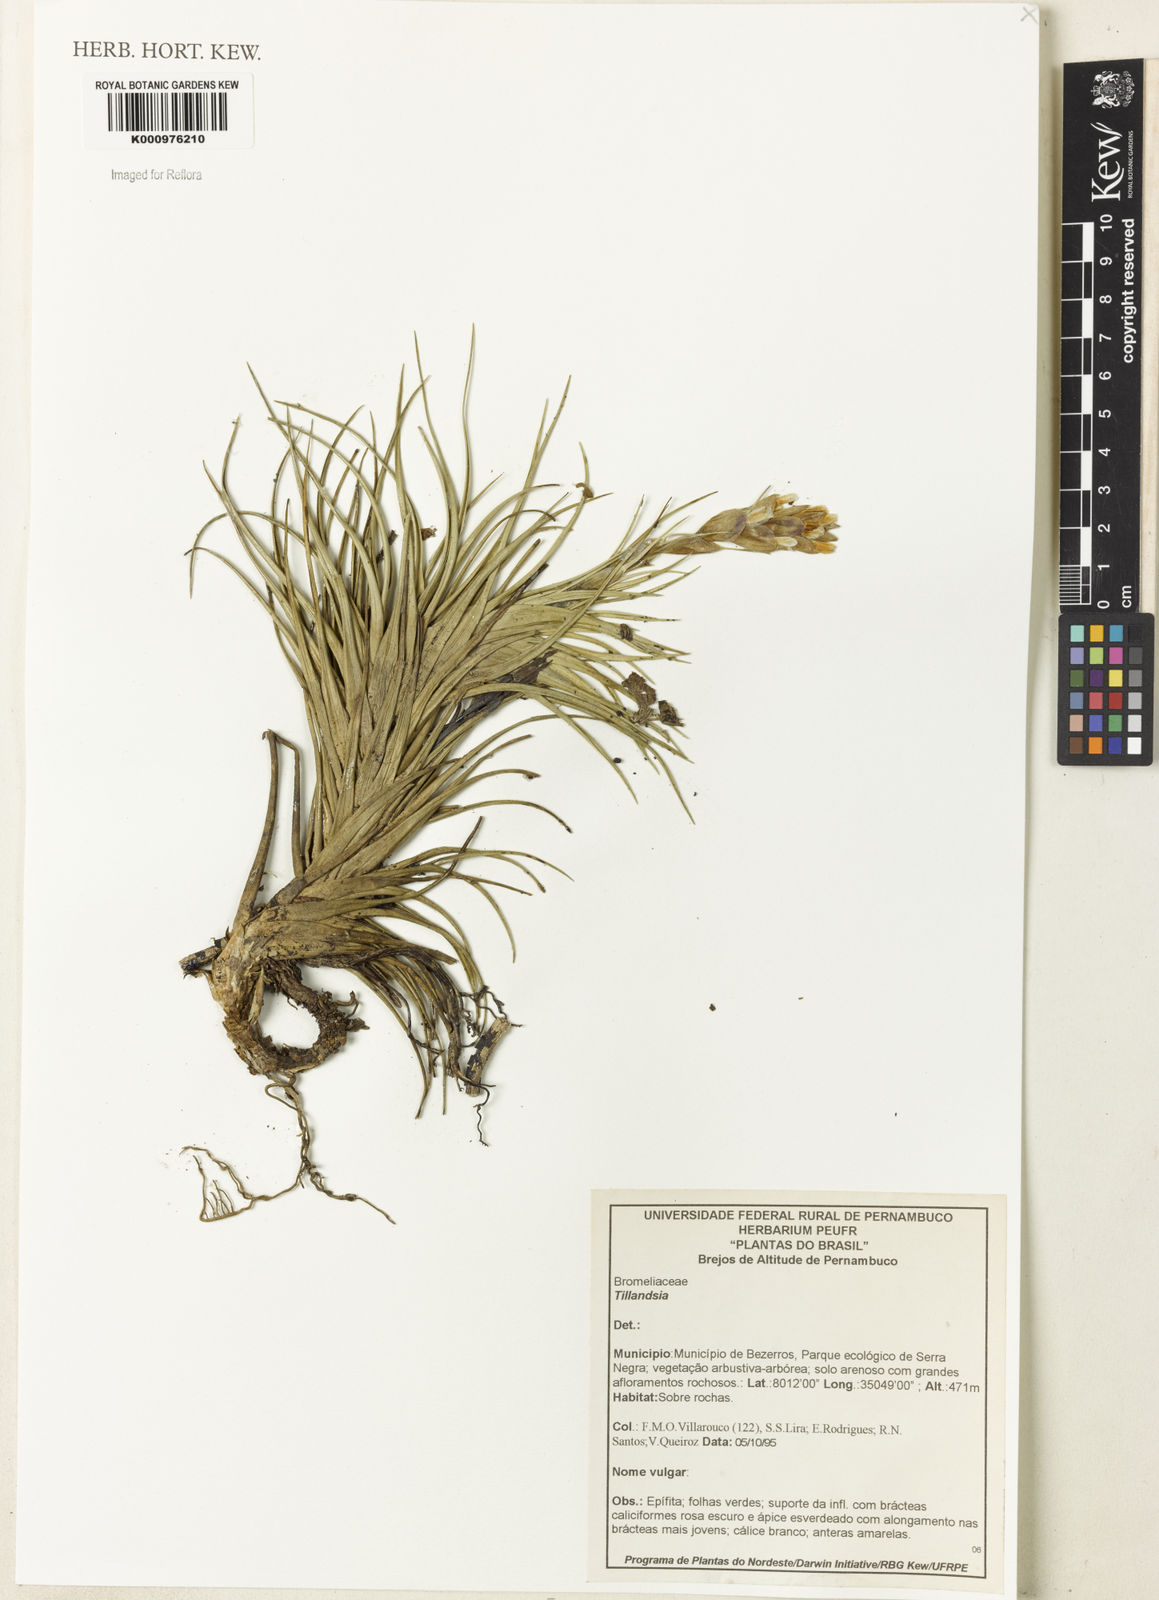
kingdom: Plantae
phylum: Tracheophyta
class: Liliopsida
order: Poales
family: Bromeliaceae
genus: Tillandsia
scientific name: Tillandsia
